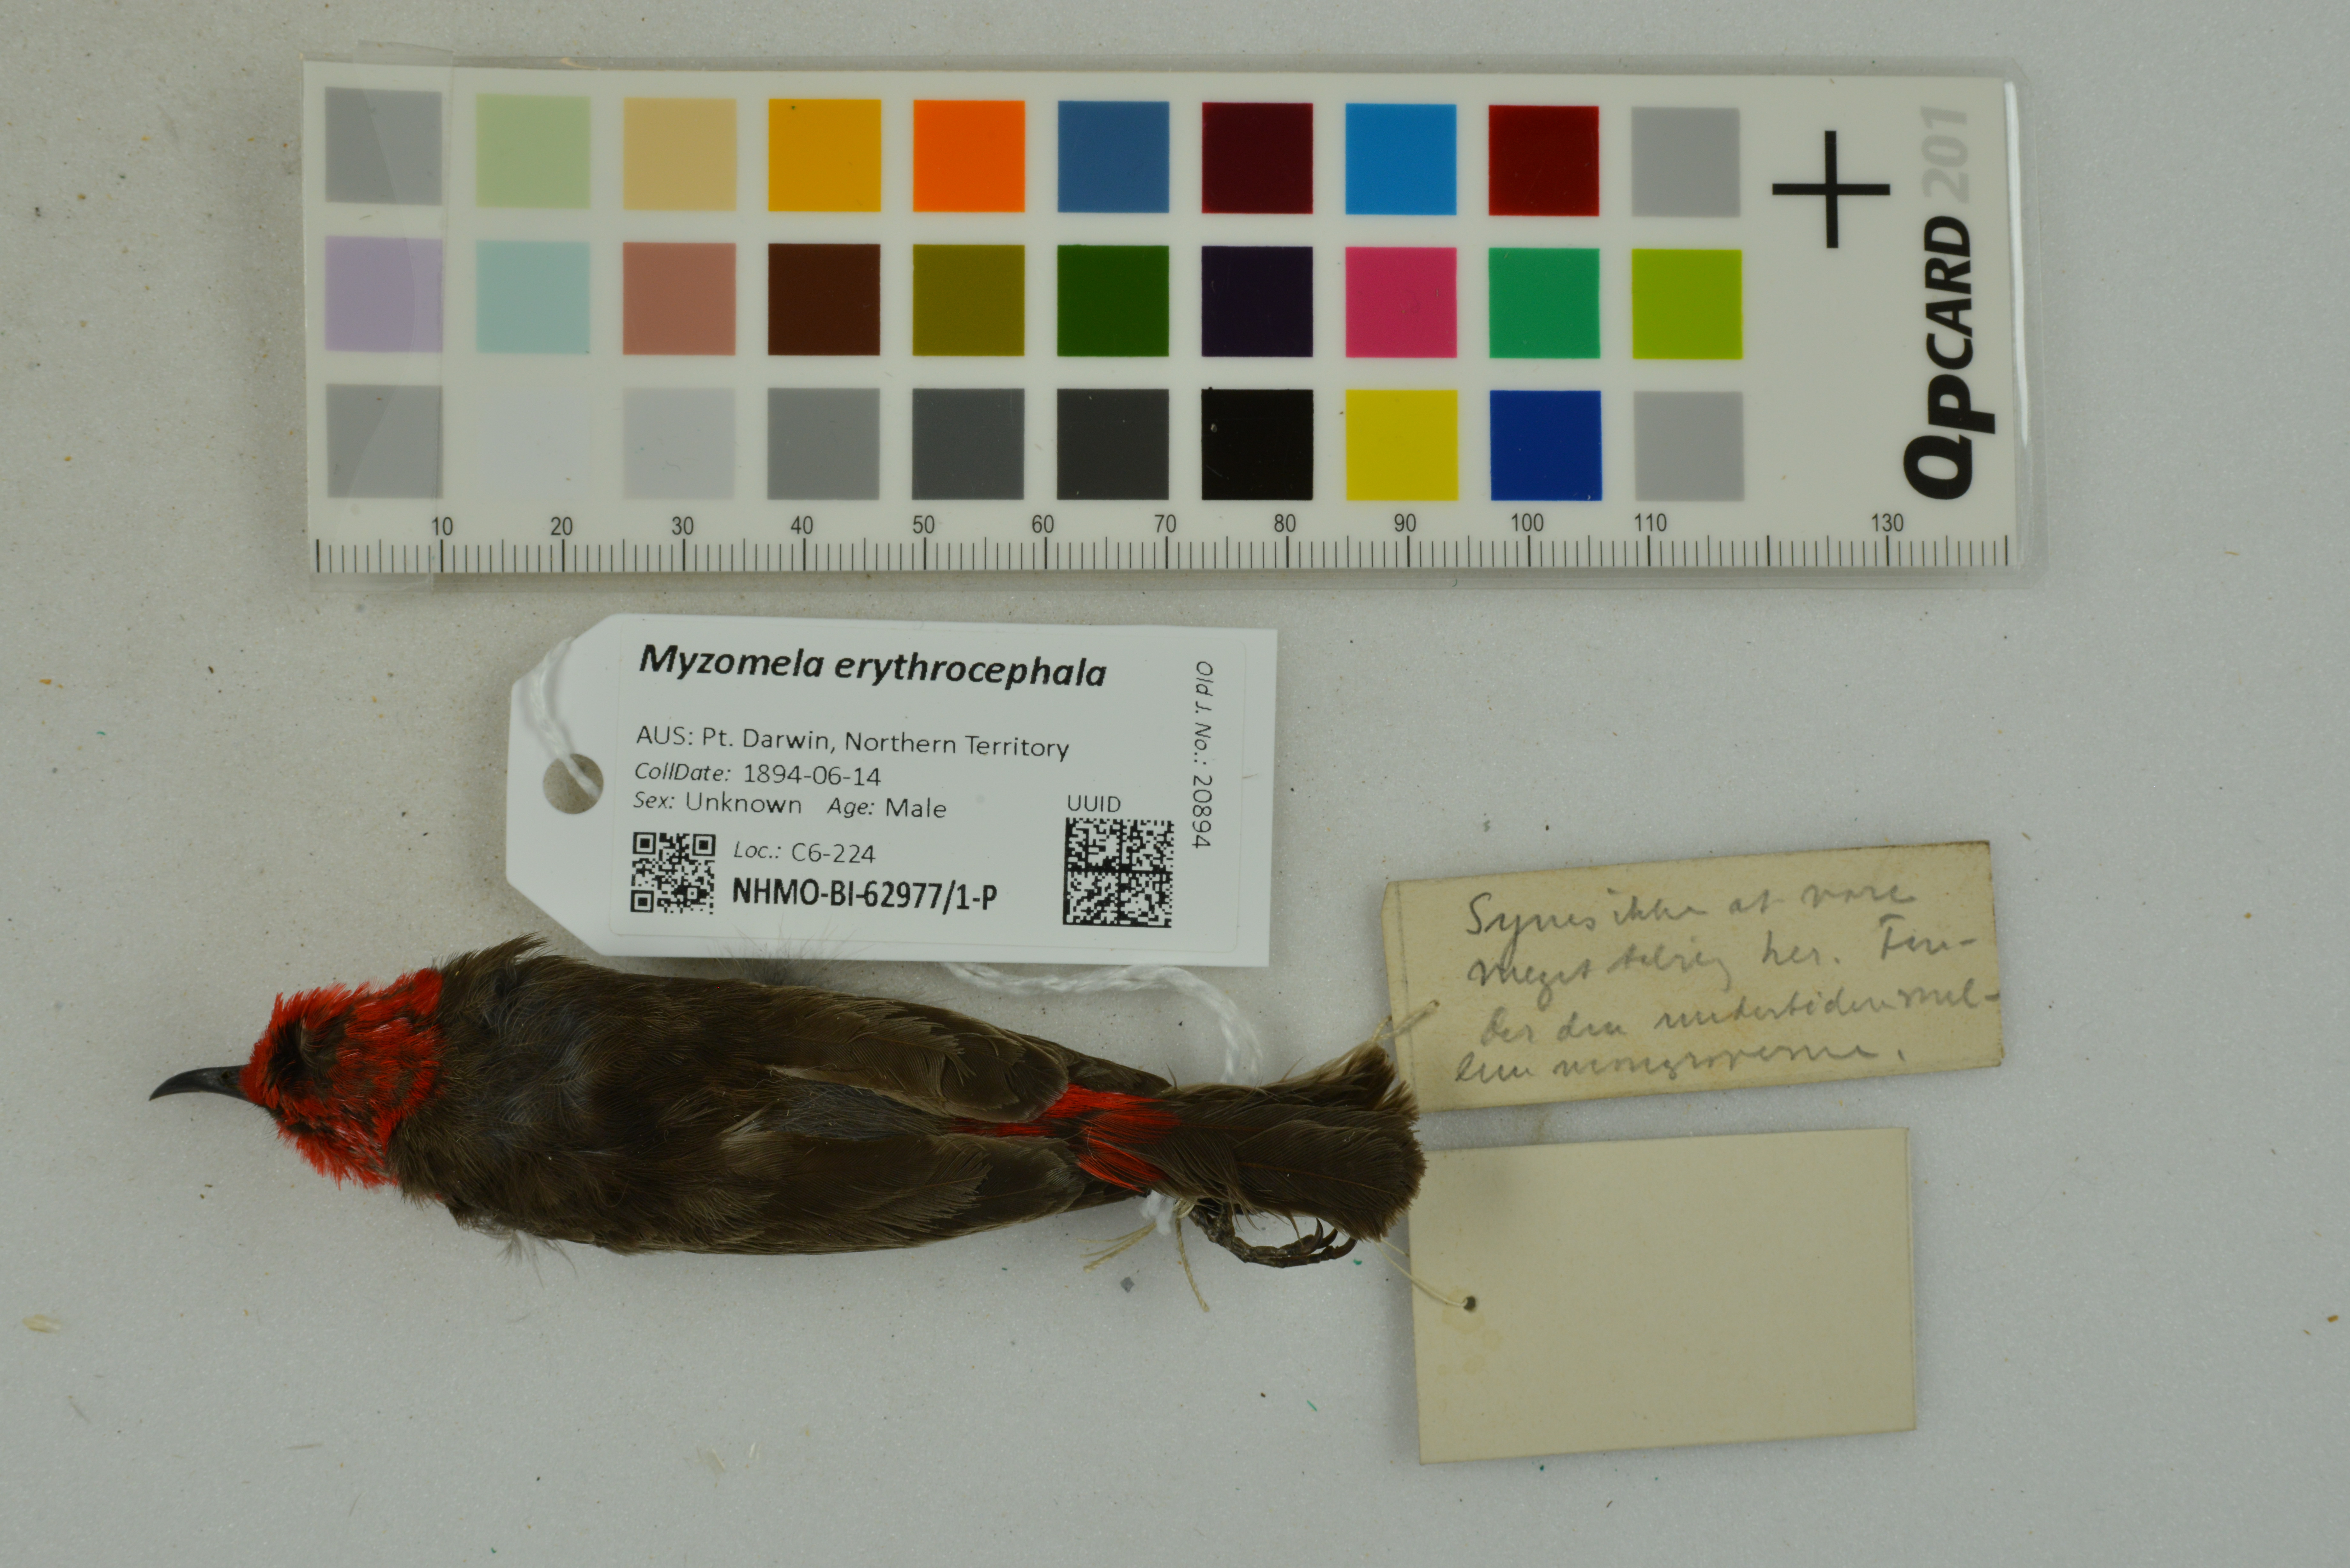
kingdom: Animalia
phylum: Chordata
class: Aves
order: Passeriformes
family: Meliphagidae
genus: Myzomela
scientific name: Myzomela erythrocephala
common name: Red-headed myzomela
